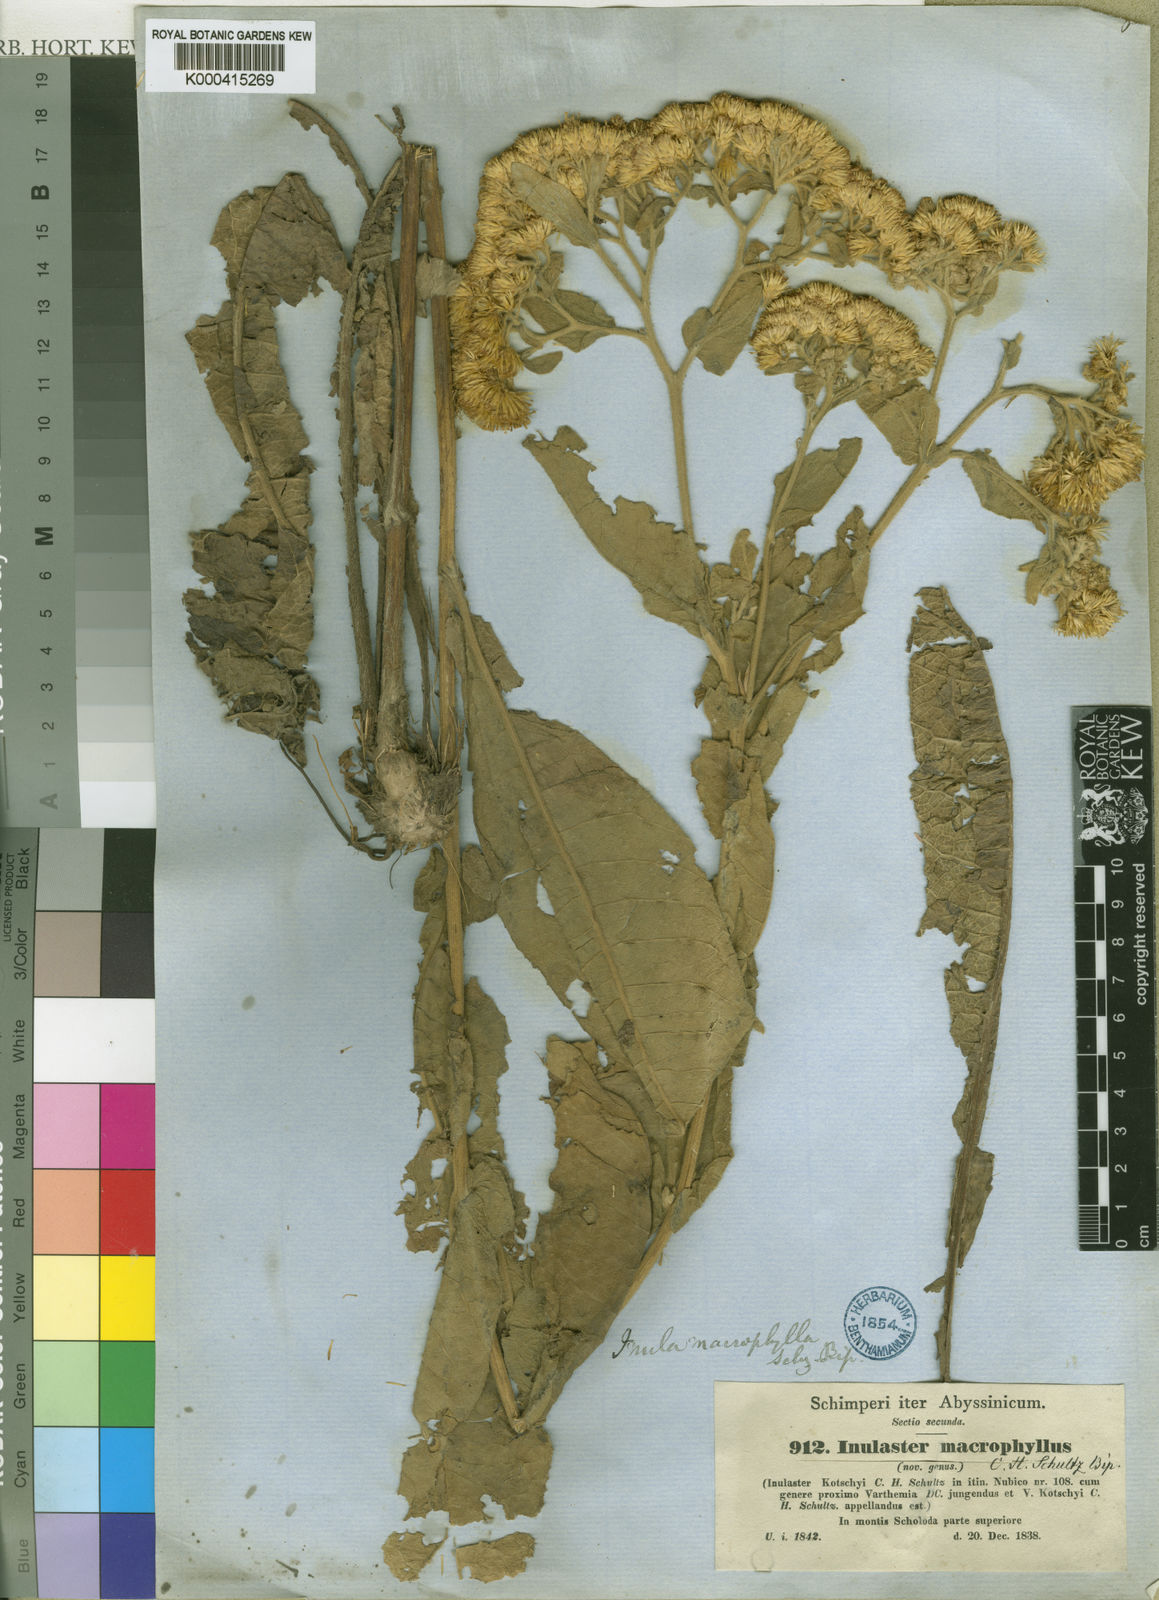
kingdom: Plantae
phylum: Tracheophyta
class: Magnoliopsida
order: Asterales
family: Asteraceae
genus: Monactinocephalus
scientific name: Monactinocephalus paniculatus
